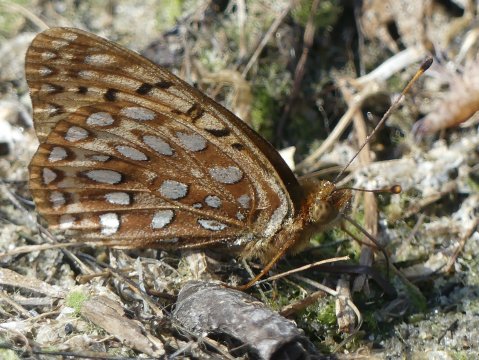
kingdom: Animalia
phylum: Arthropoda
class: Insecta
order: Lepidoptera
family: Nymphalidae
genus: Speyeria
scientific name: Speyeria aphrodite
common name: Aphrodite Fritillary
